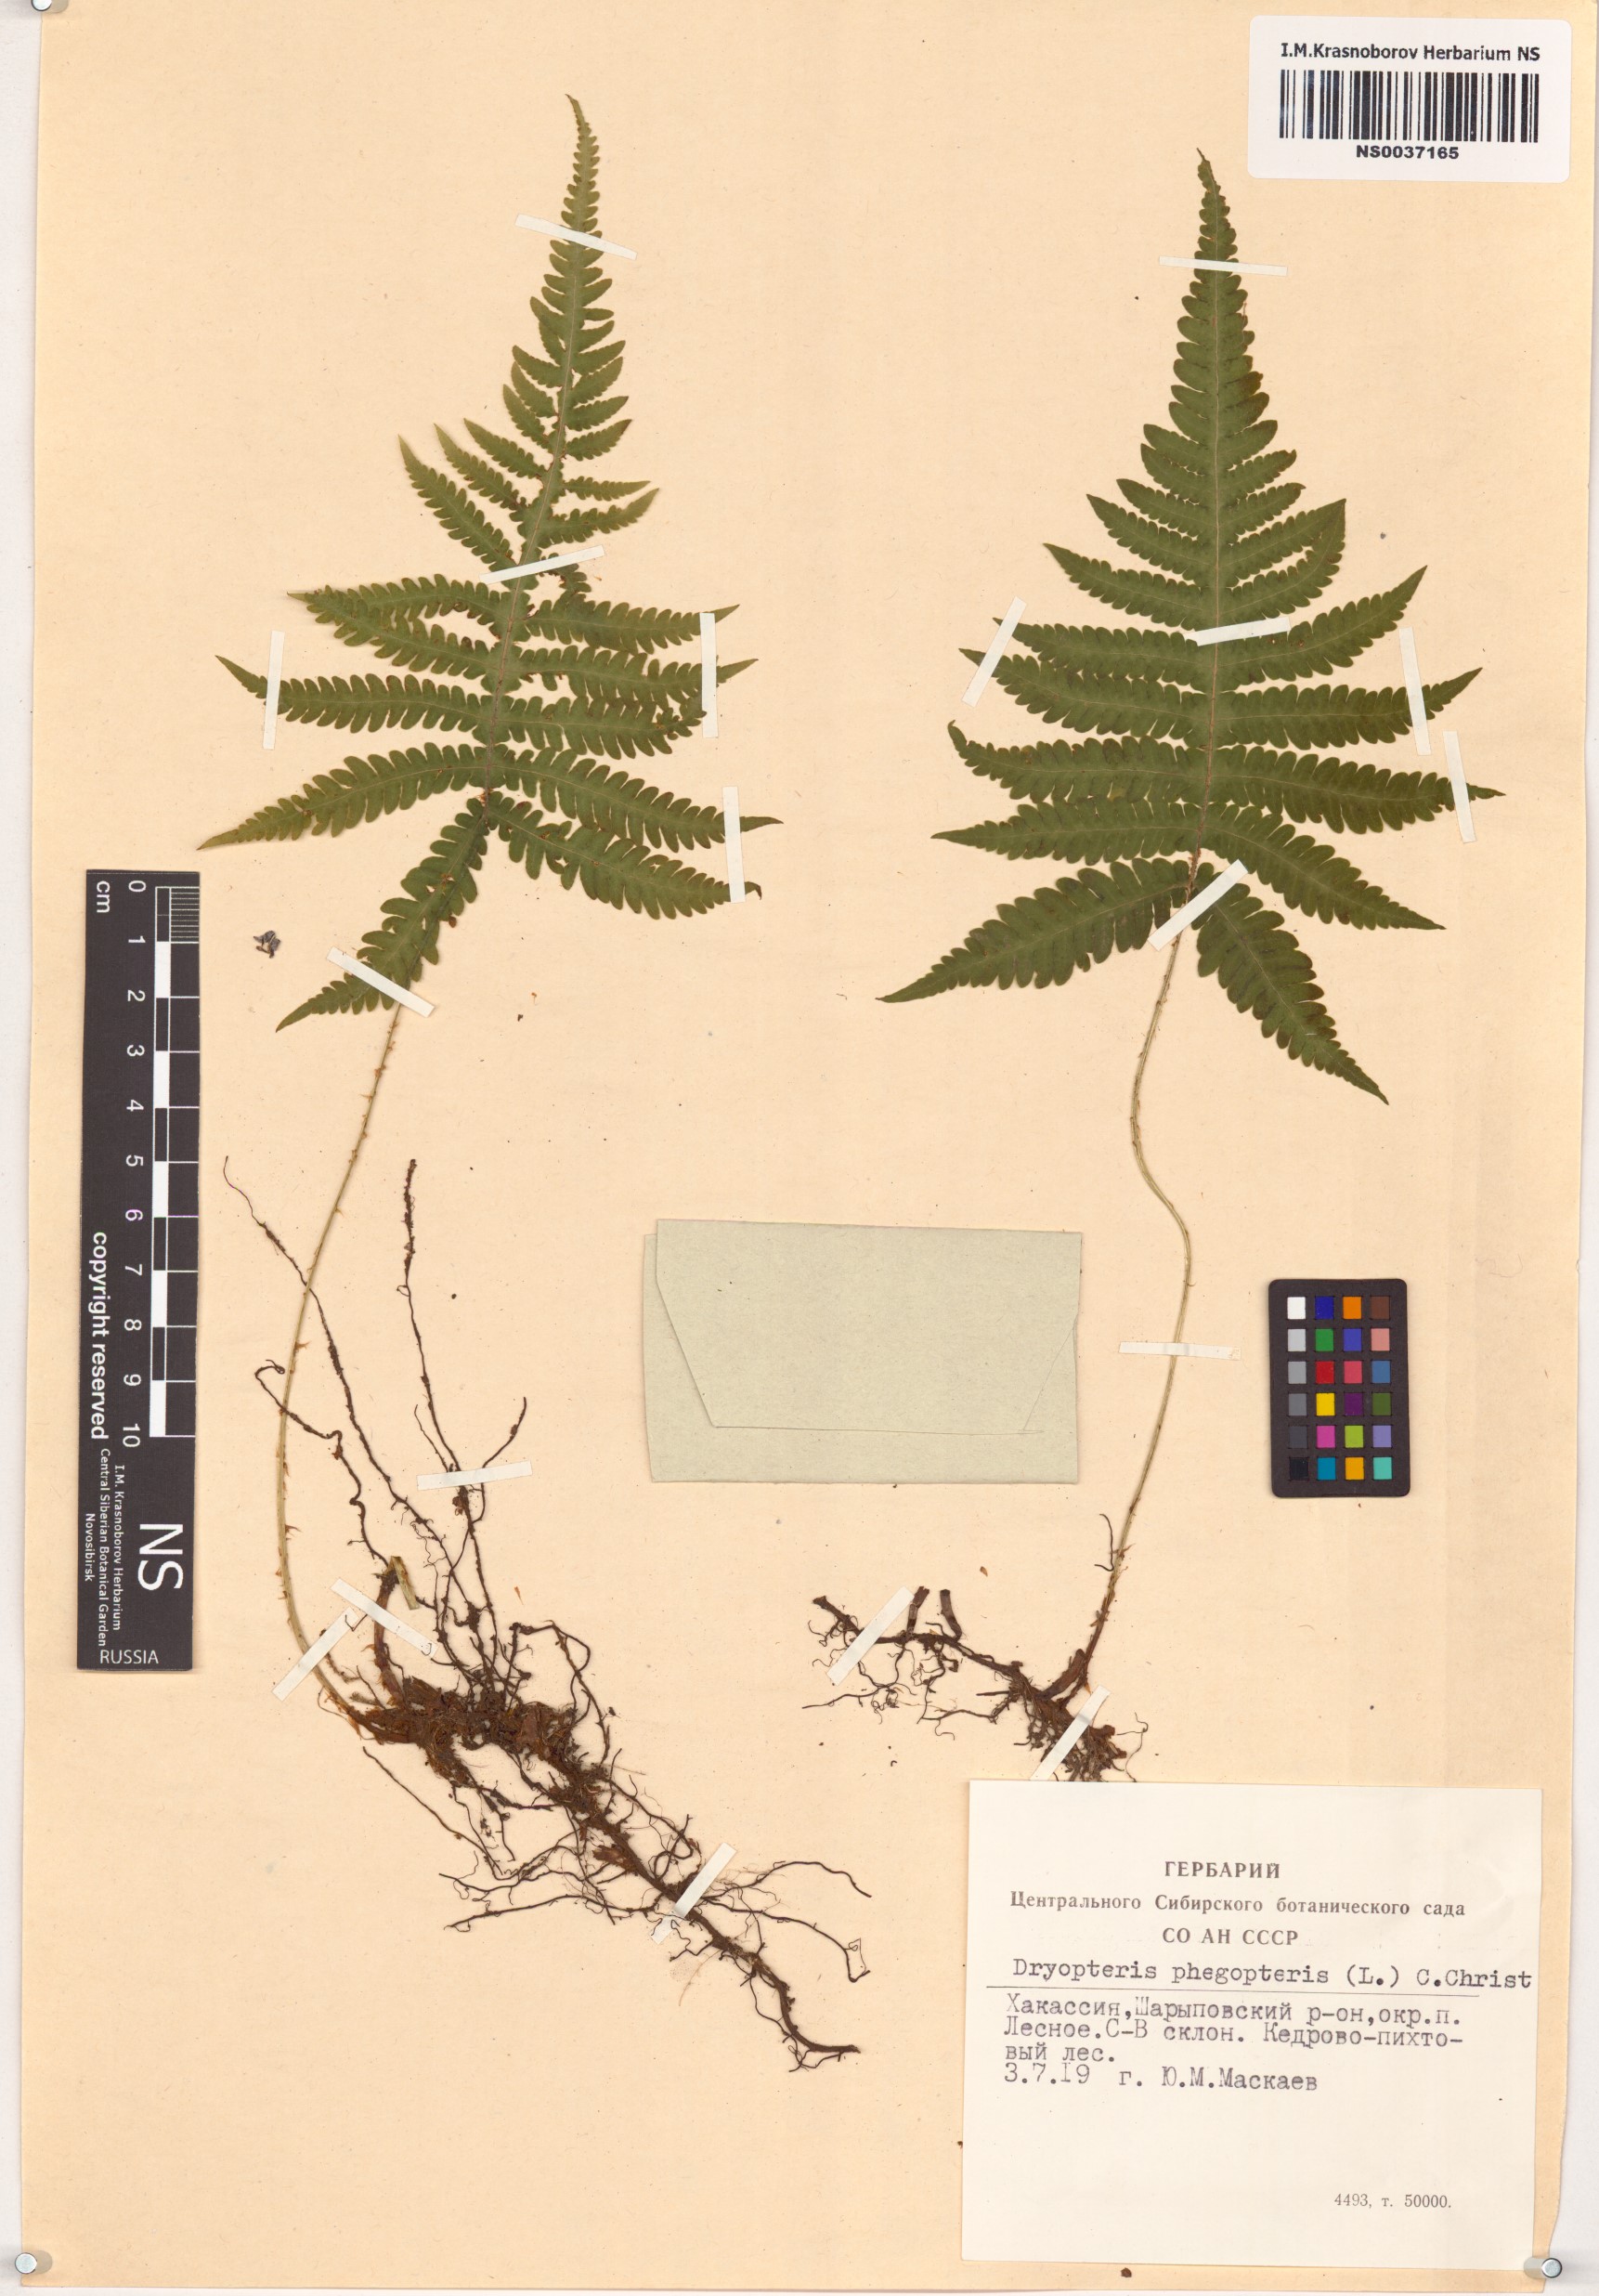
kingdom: Plantae
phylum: Tracheophyta
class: Polypodiopsida
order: Polypodiales
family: Thelypteridaceae
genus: Phegopteris
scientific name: Phegopteris connectilis
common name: Beech fern
